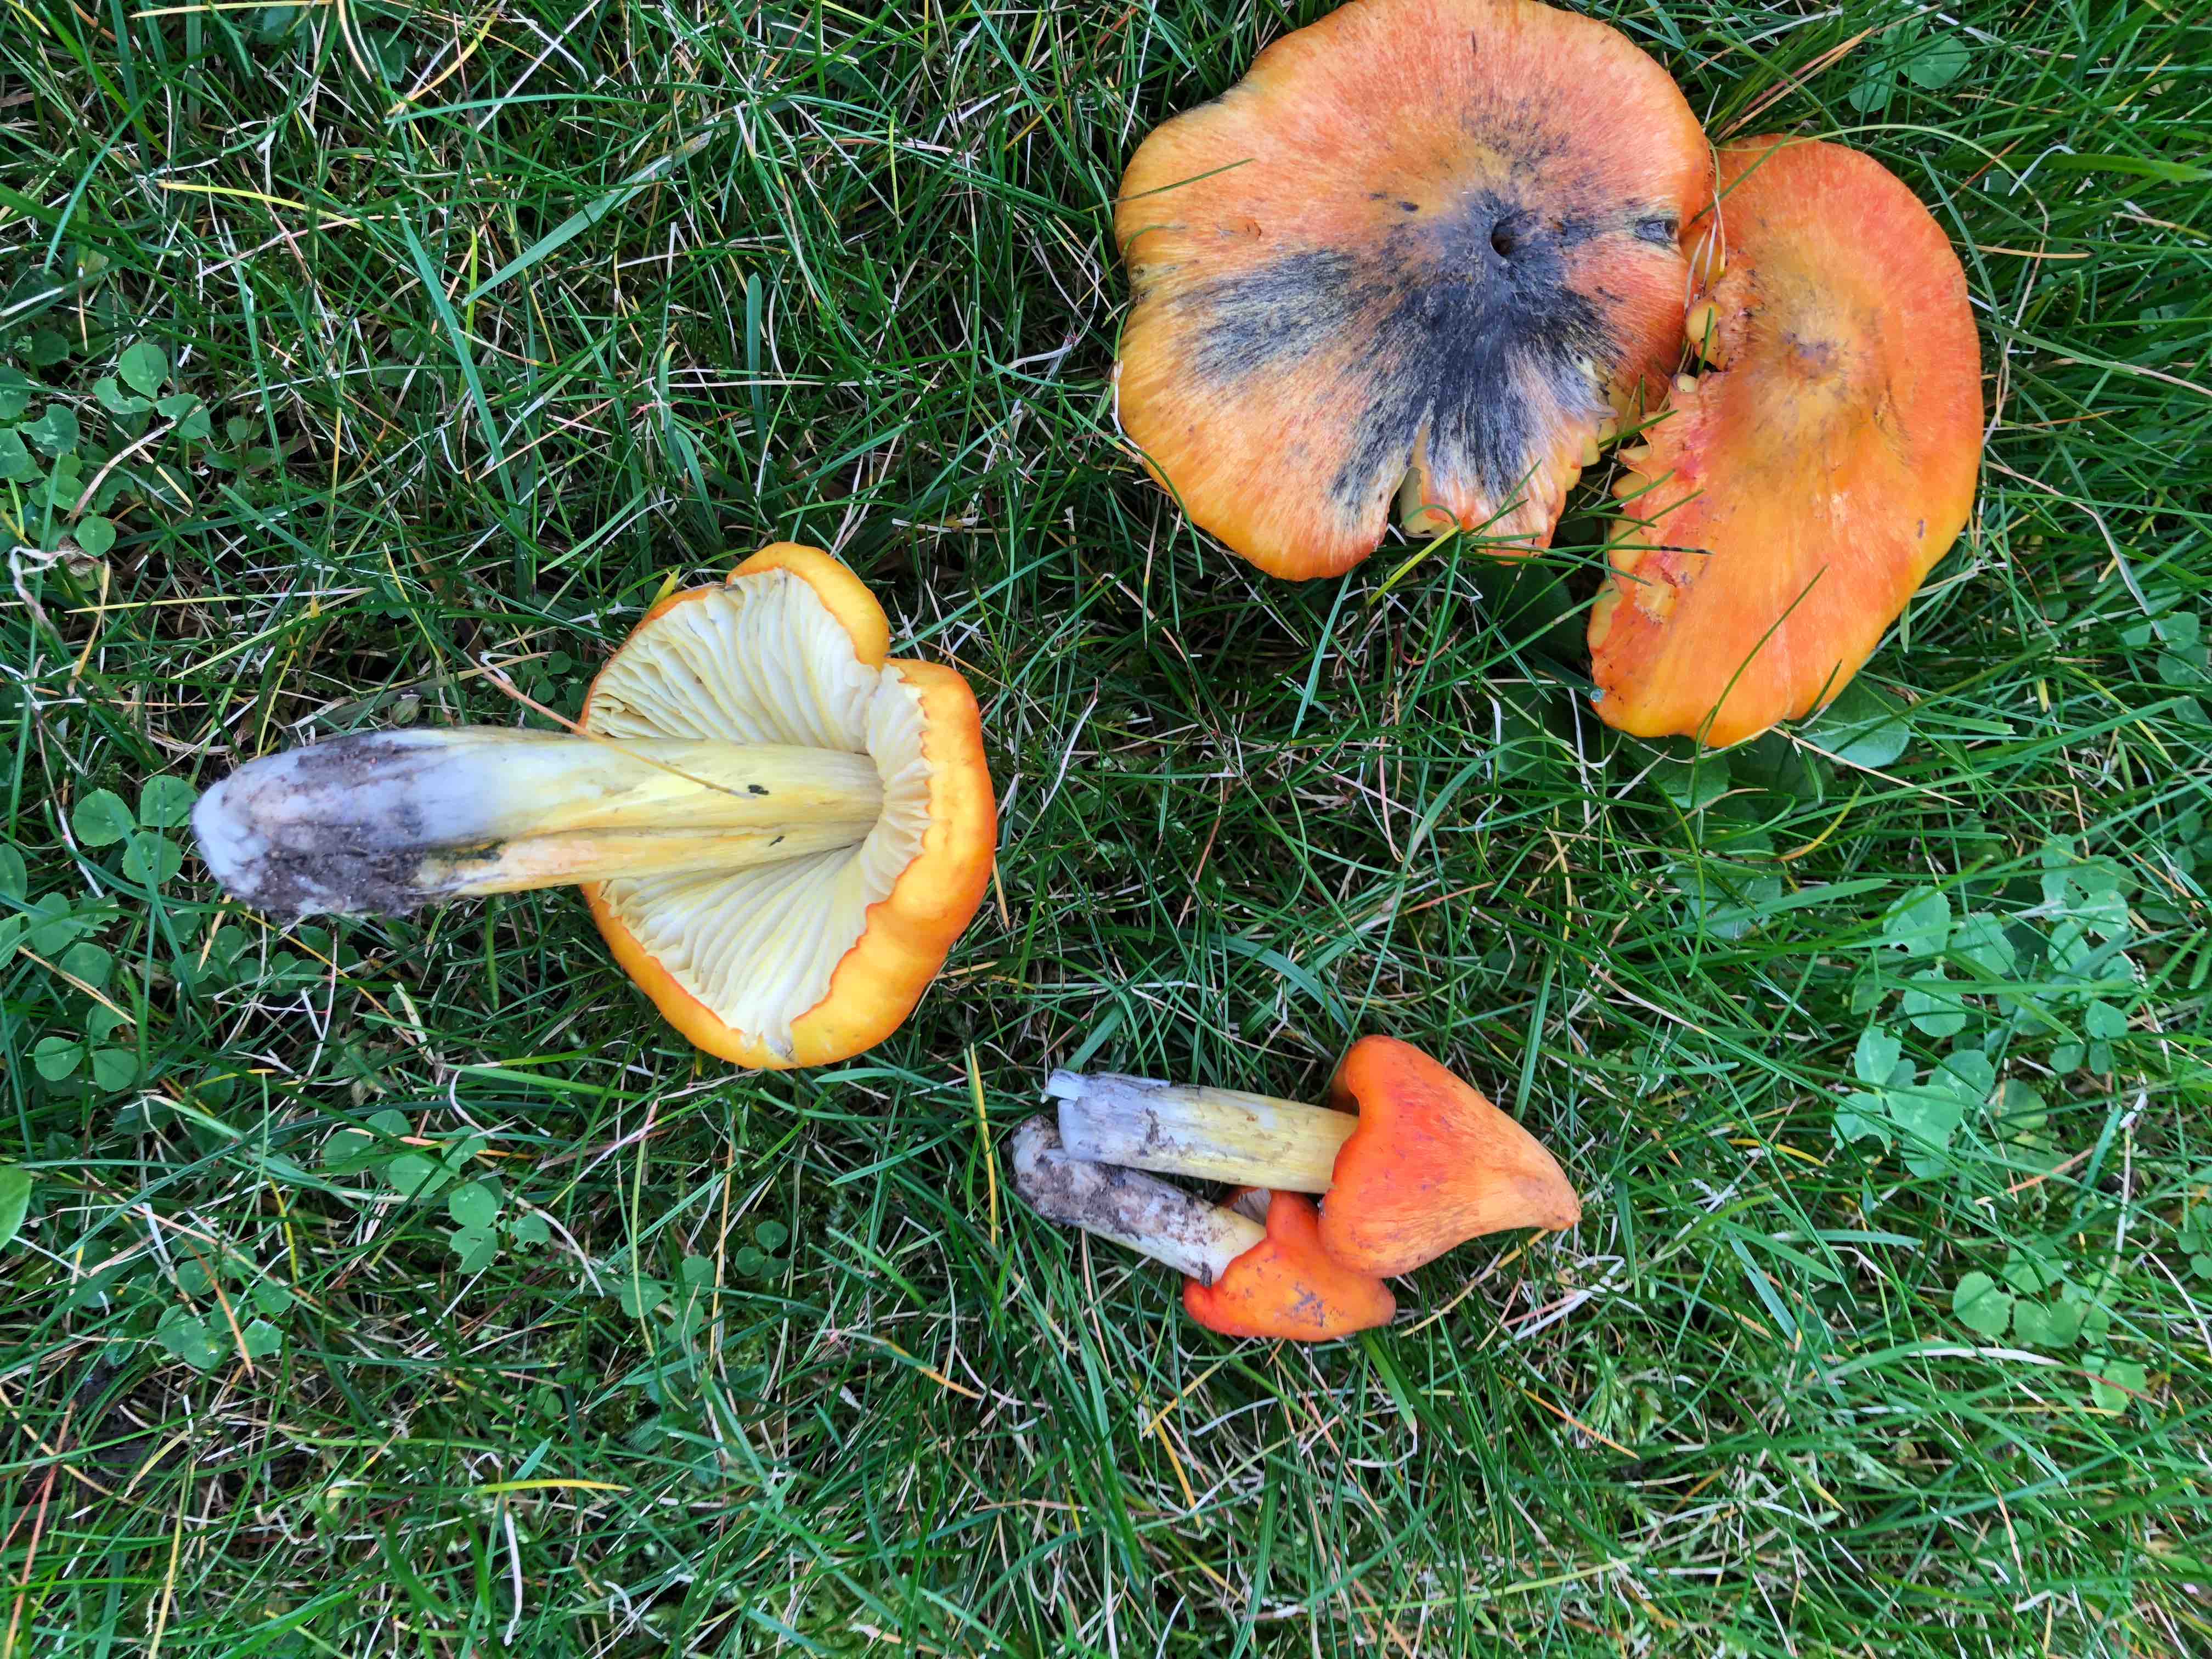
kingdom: Fungi
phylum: Basidiomycota
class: Agaricomycetes
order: Agaricales
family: Hygrophoraceae
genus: Hygrocybe
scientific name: Hygrocybe conica
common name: kegle-vokshat
